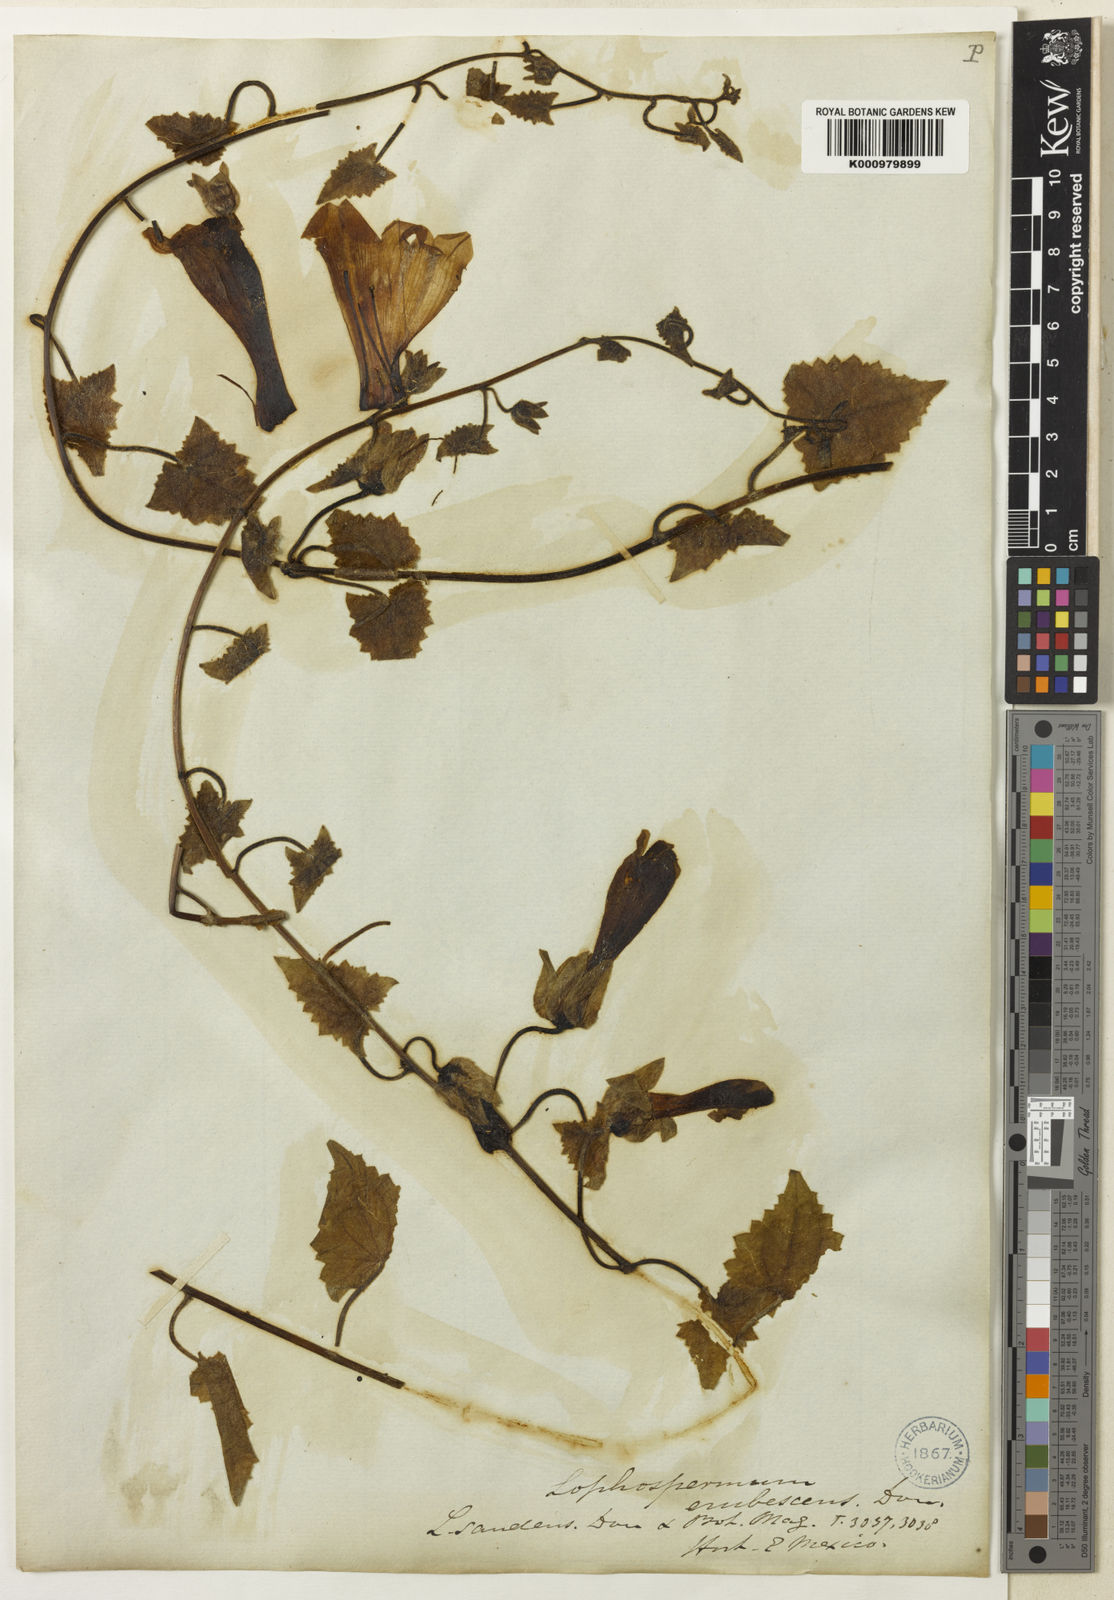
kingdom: Plantae
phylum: Tracheophyta
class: Magnoliopsida
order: Lamiales
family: Plantaginaceae
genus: Lophospermum
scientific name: Lophospermum erubescens
